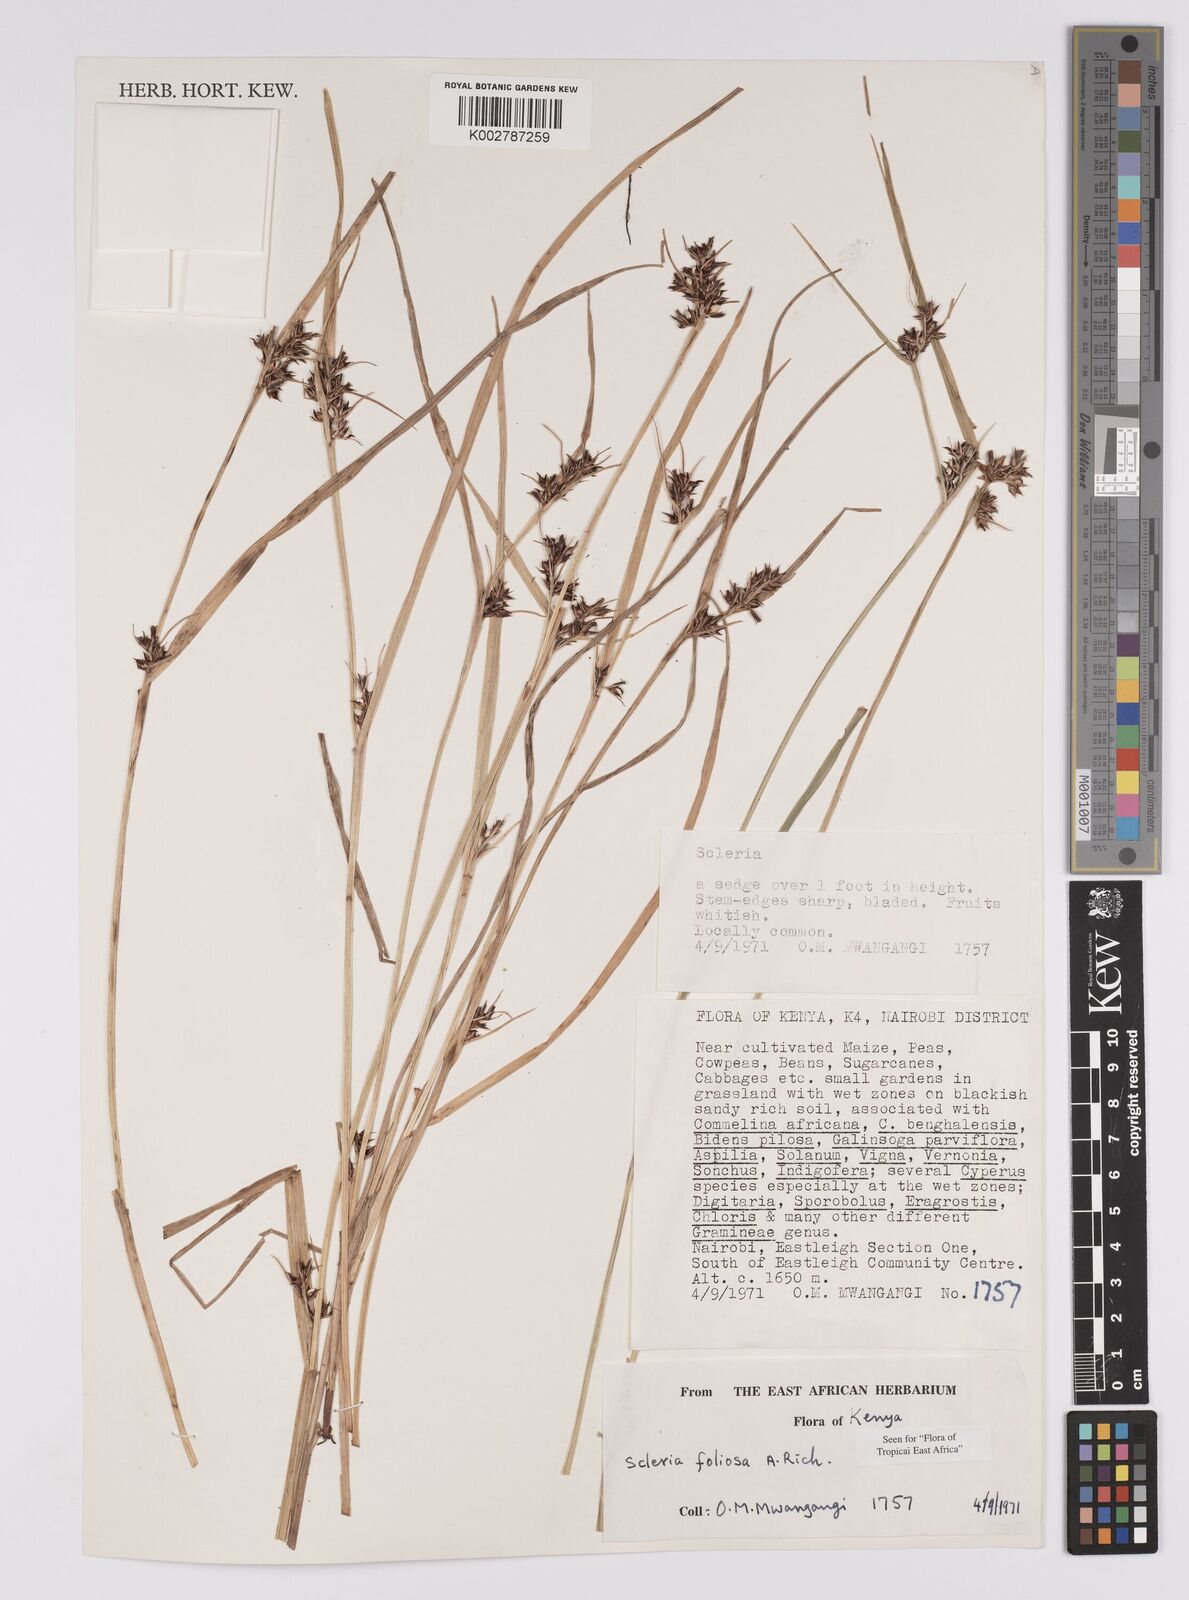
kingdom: Plantae
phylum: Tracheophyta
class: Liliopsida
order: Poales
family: Cyperaceae
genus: Scleria
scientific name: Scleria foliosa
